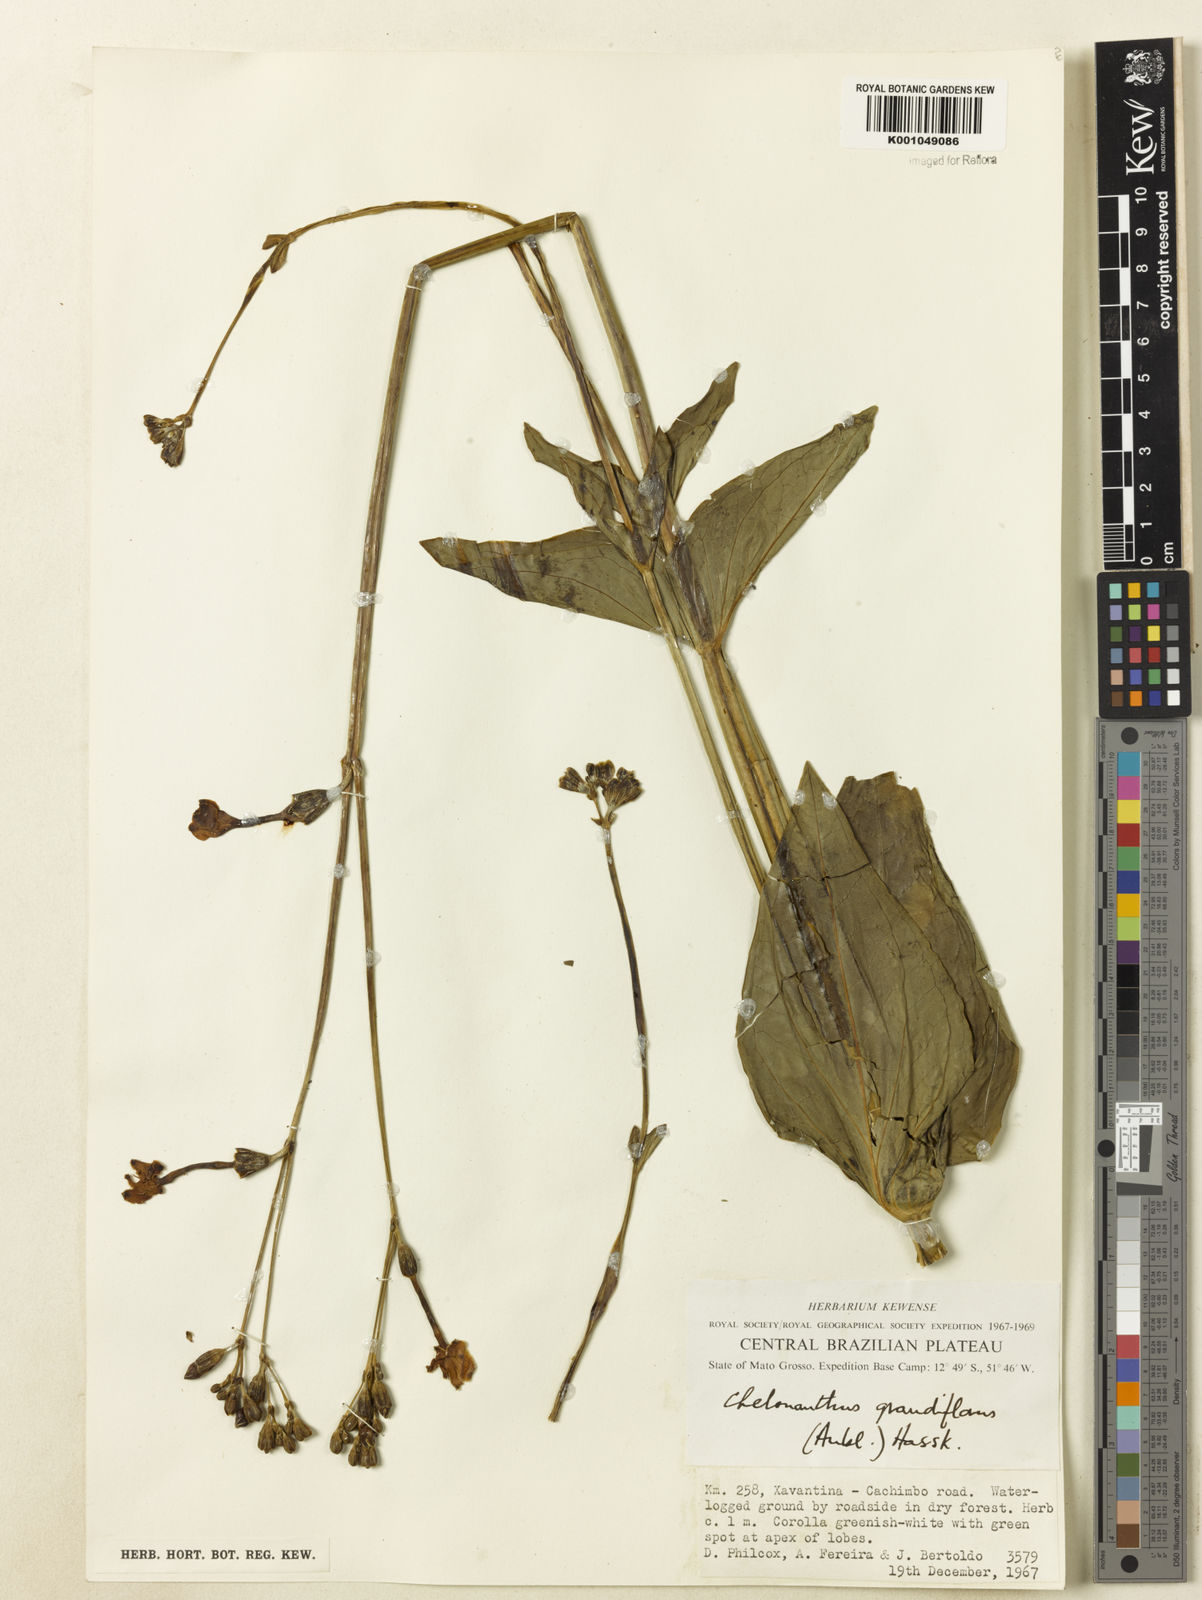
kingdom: Plantae
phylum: Tracheophyta
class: Magnoliopsida
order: Gentianales
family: Gentianaceae
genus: Chelonanthus
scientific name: Chelonanthus grandiflorus
